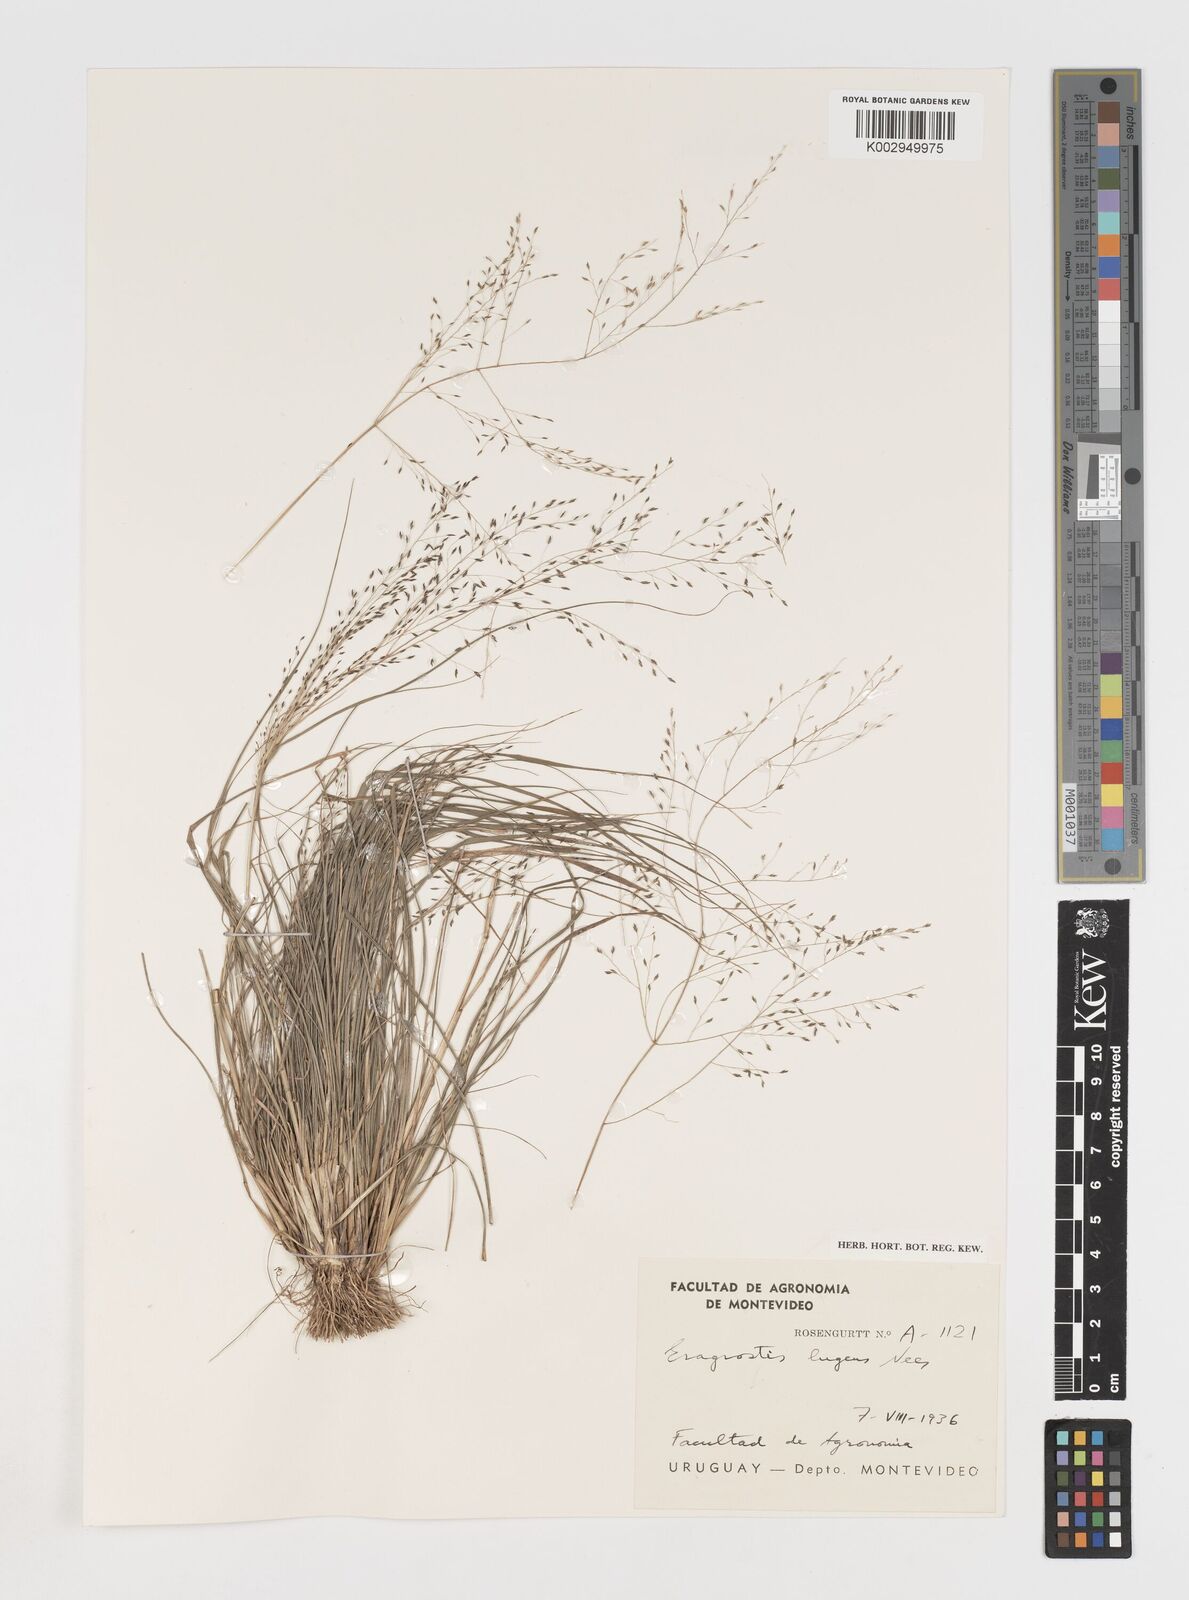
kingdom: Plantae
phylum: Tracheophyta
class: Liliopsida
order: Poales
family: Poaceae
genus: Eragrostis
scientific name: Eragrostis
